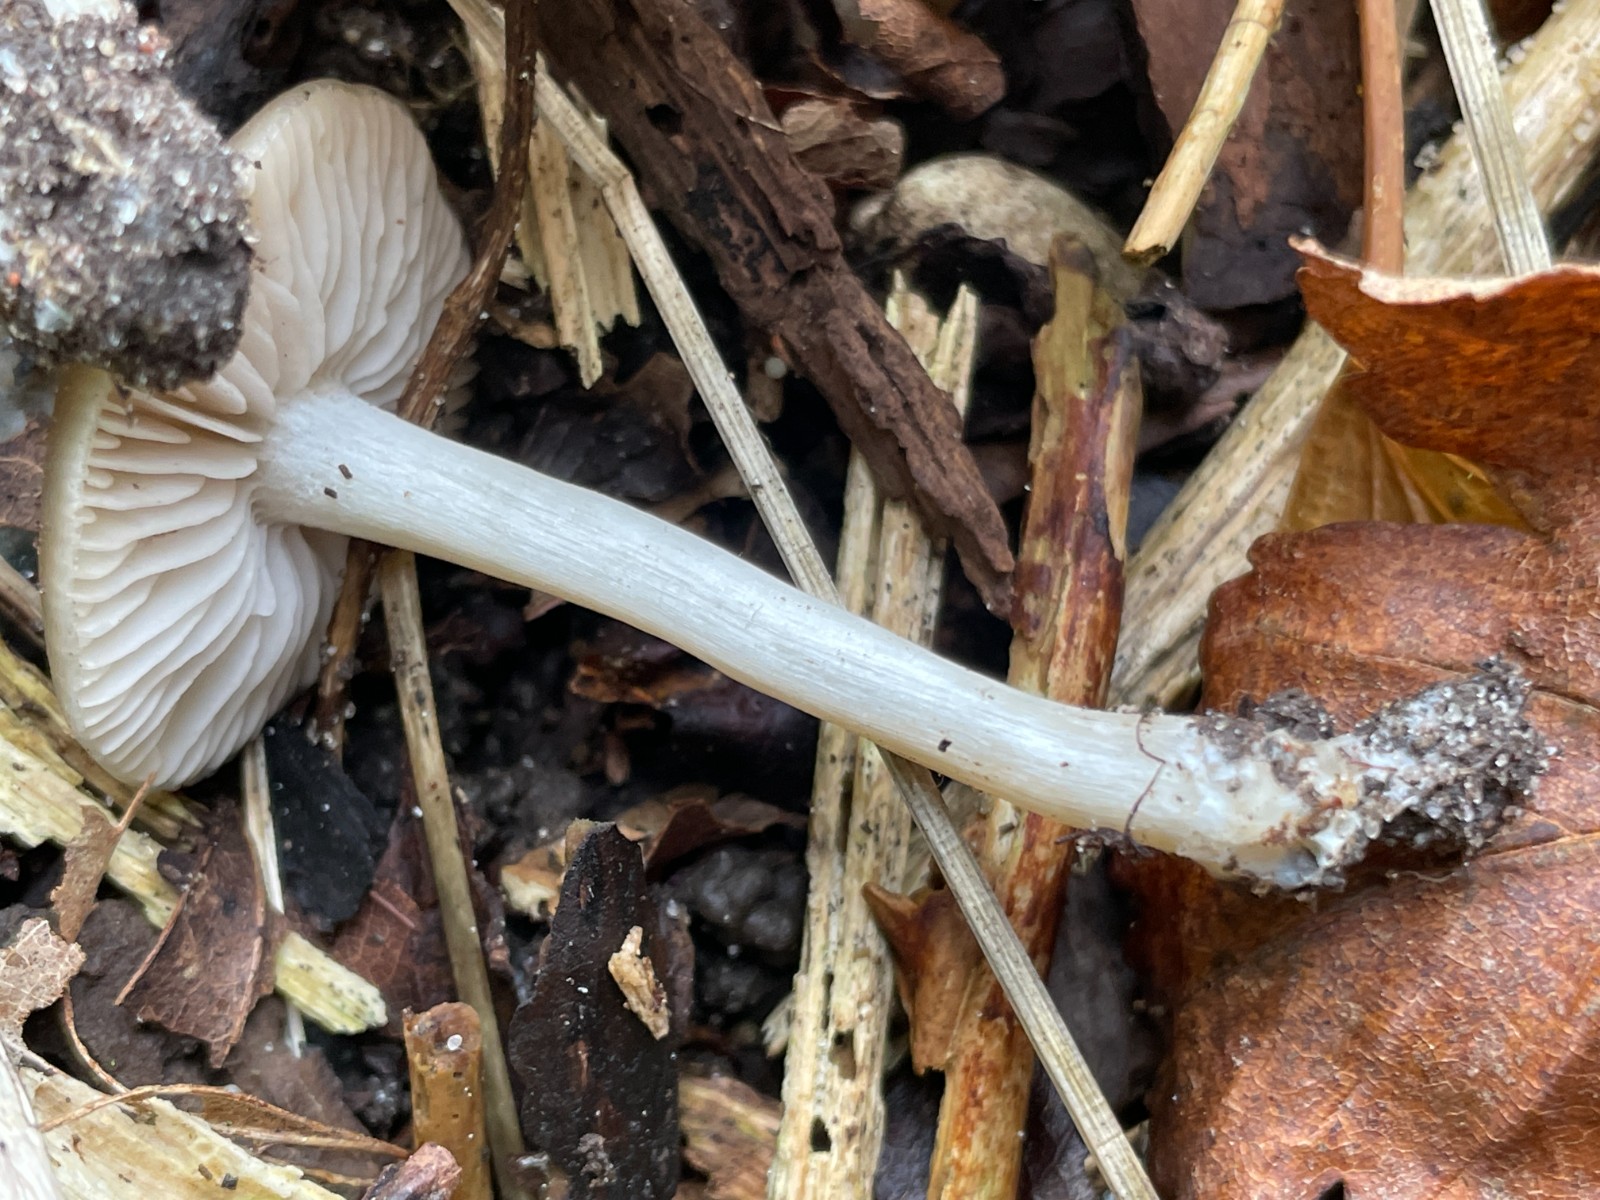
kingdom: Fungi
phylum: Basidiomycota
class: Agaricomycetes
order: Agaricales
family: Entolomataceae
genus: Entoloma
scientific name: Entoloma
